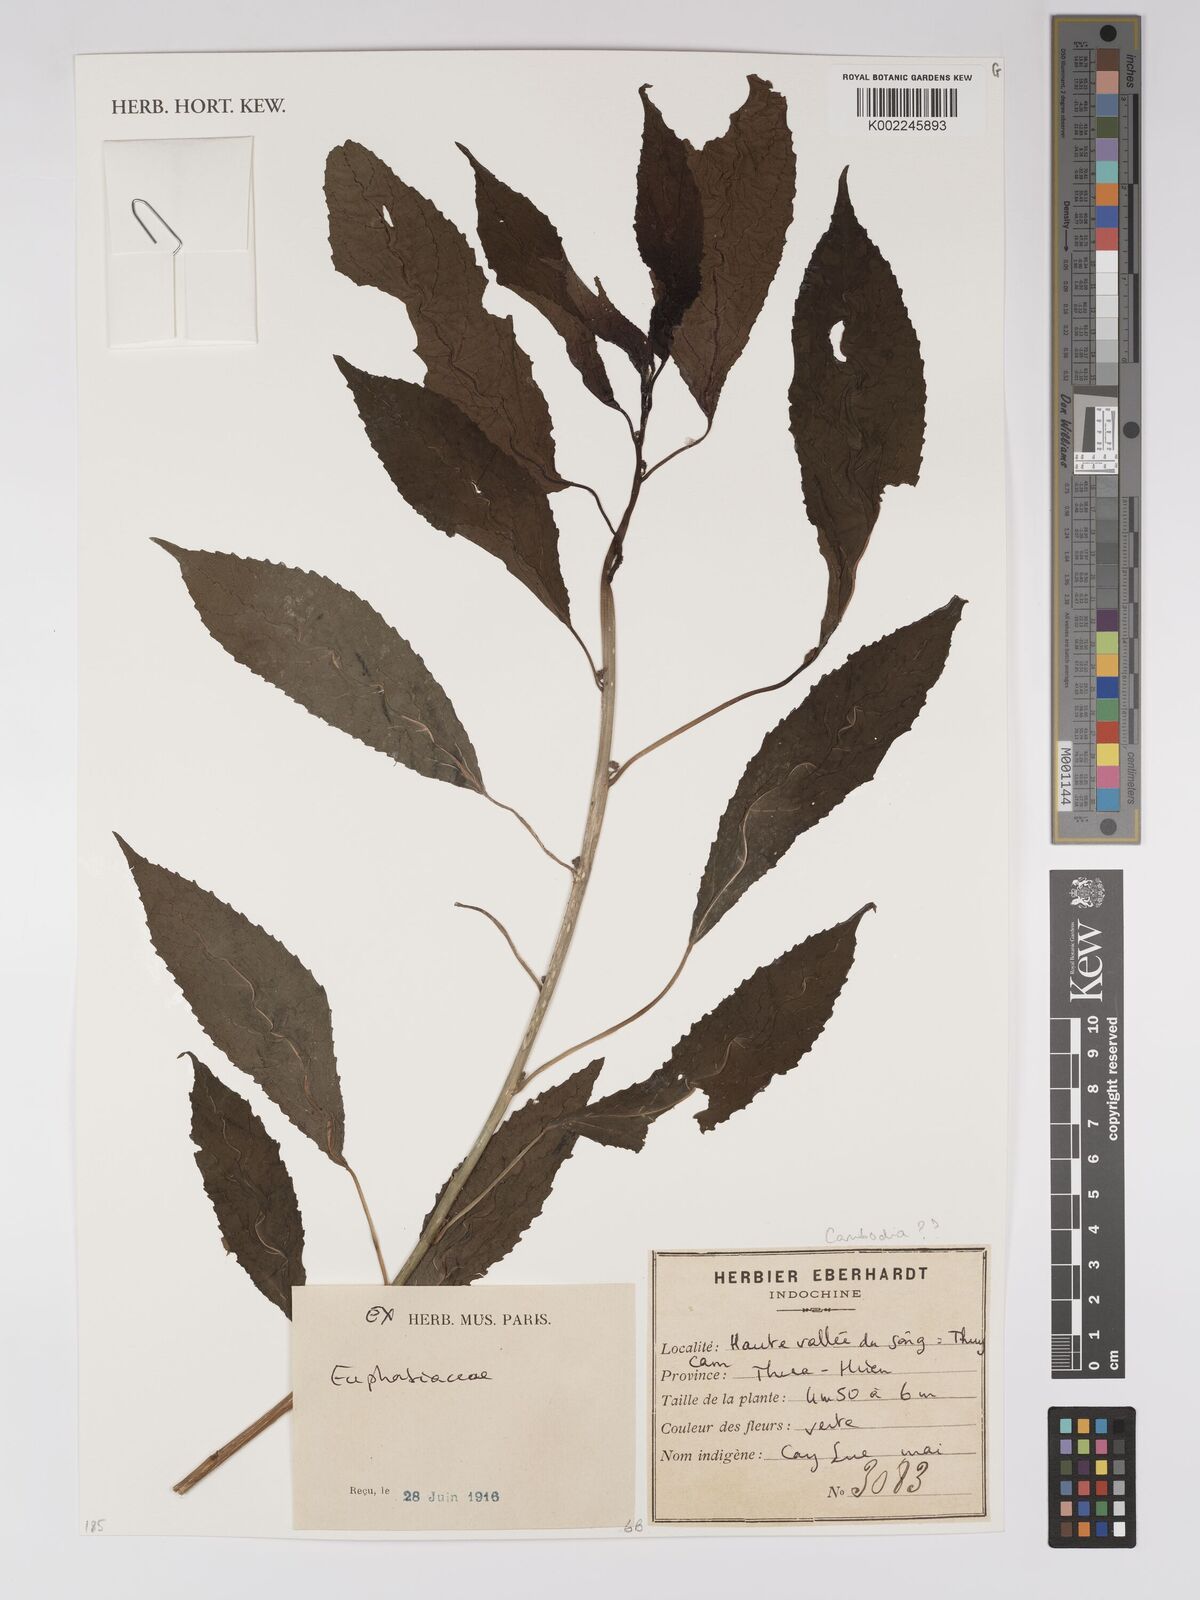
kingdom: Plantae
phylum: Tracheophyta
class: Magnoliopsida
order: Malpighiales
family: Euphorbiaceae
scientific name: Euphorbiaceae
